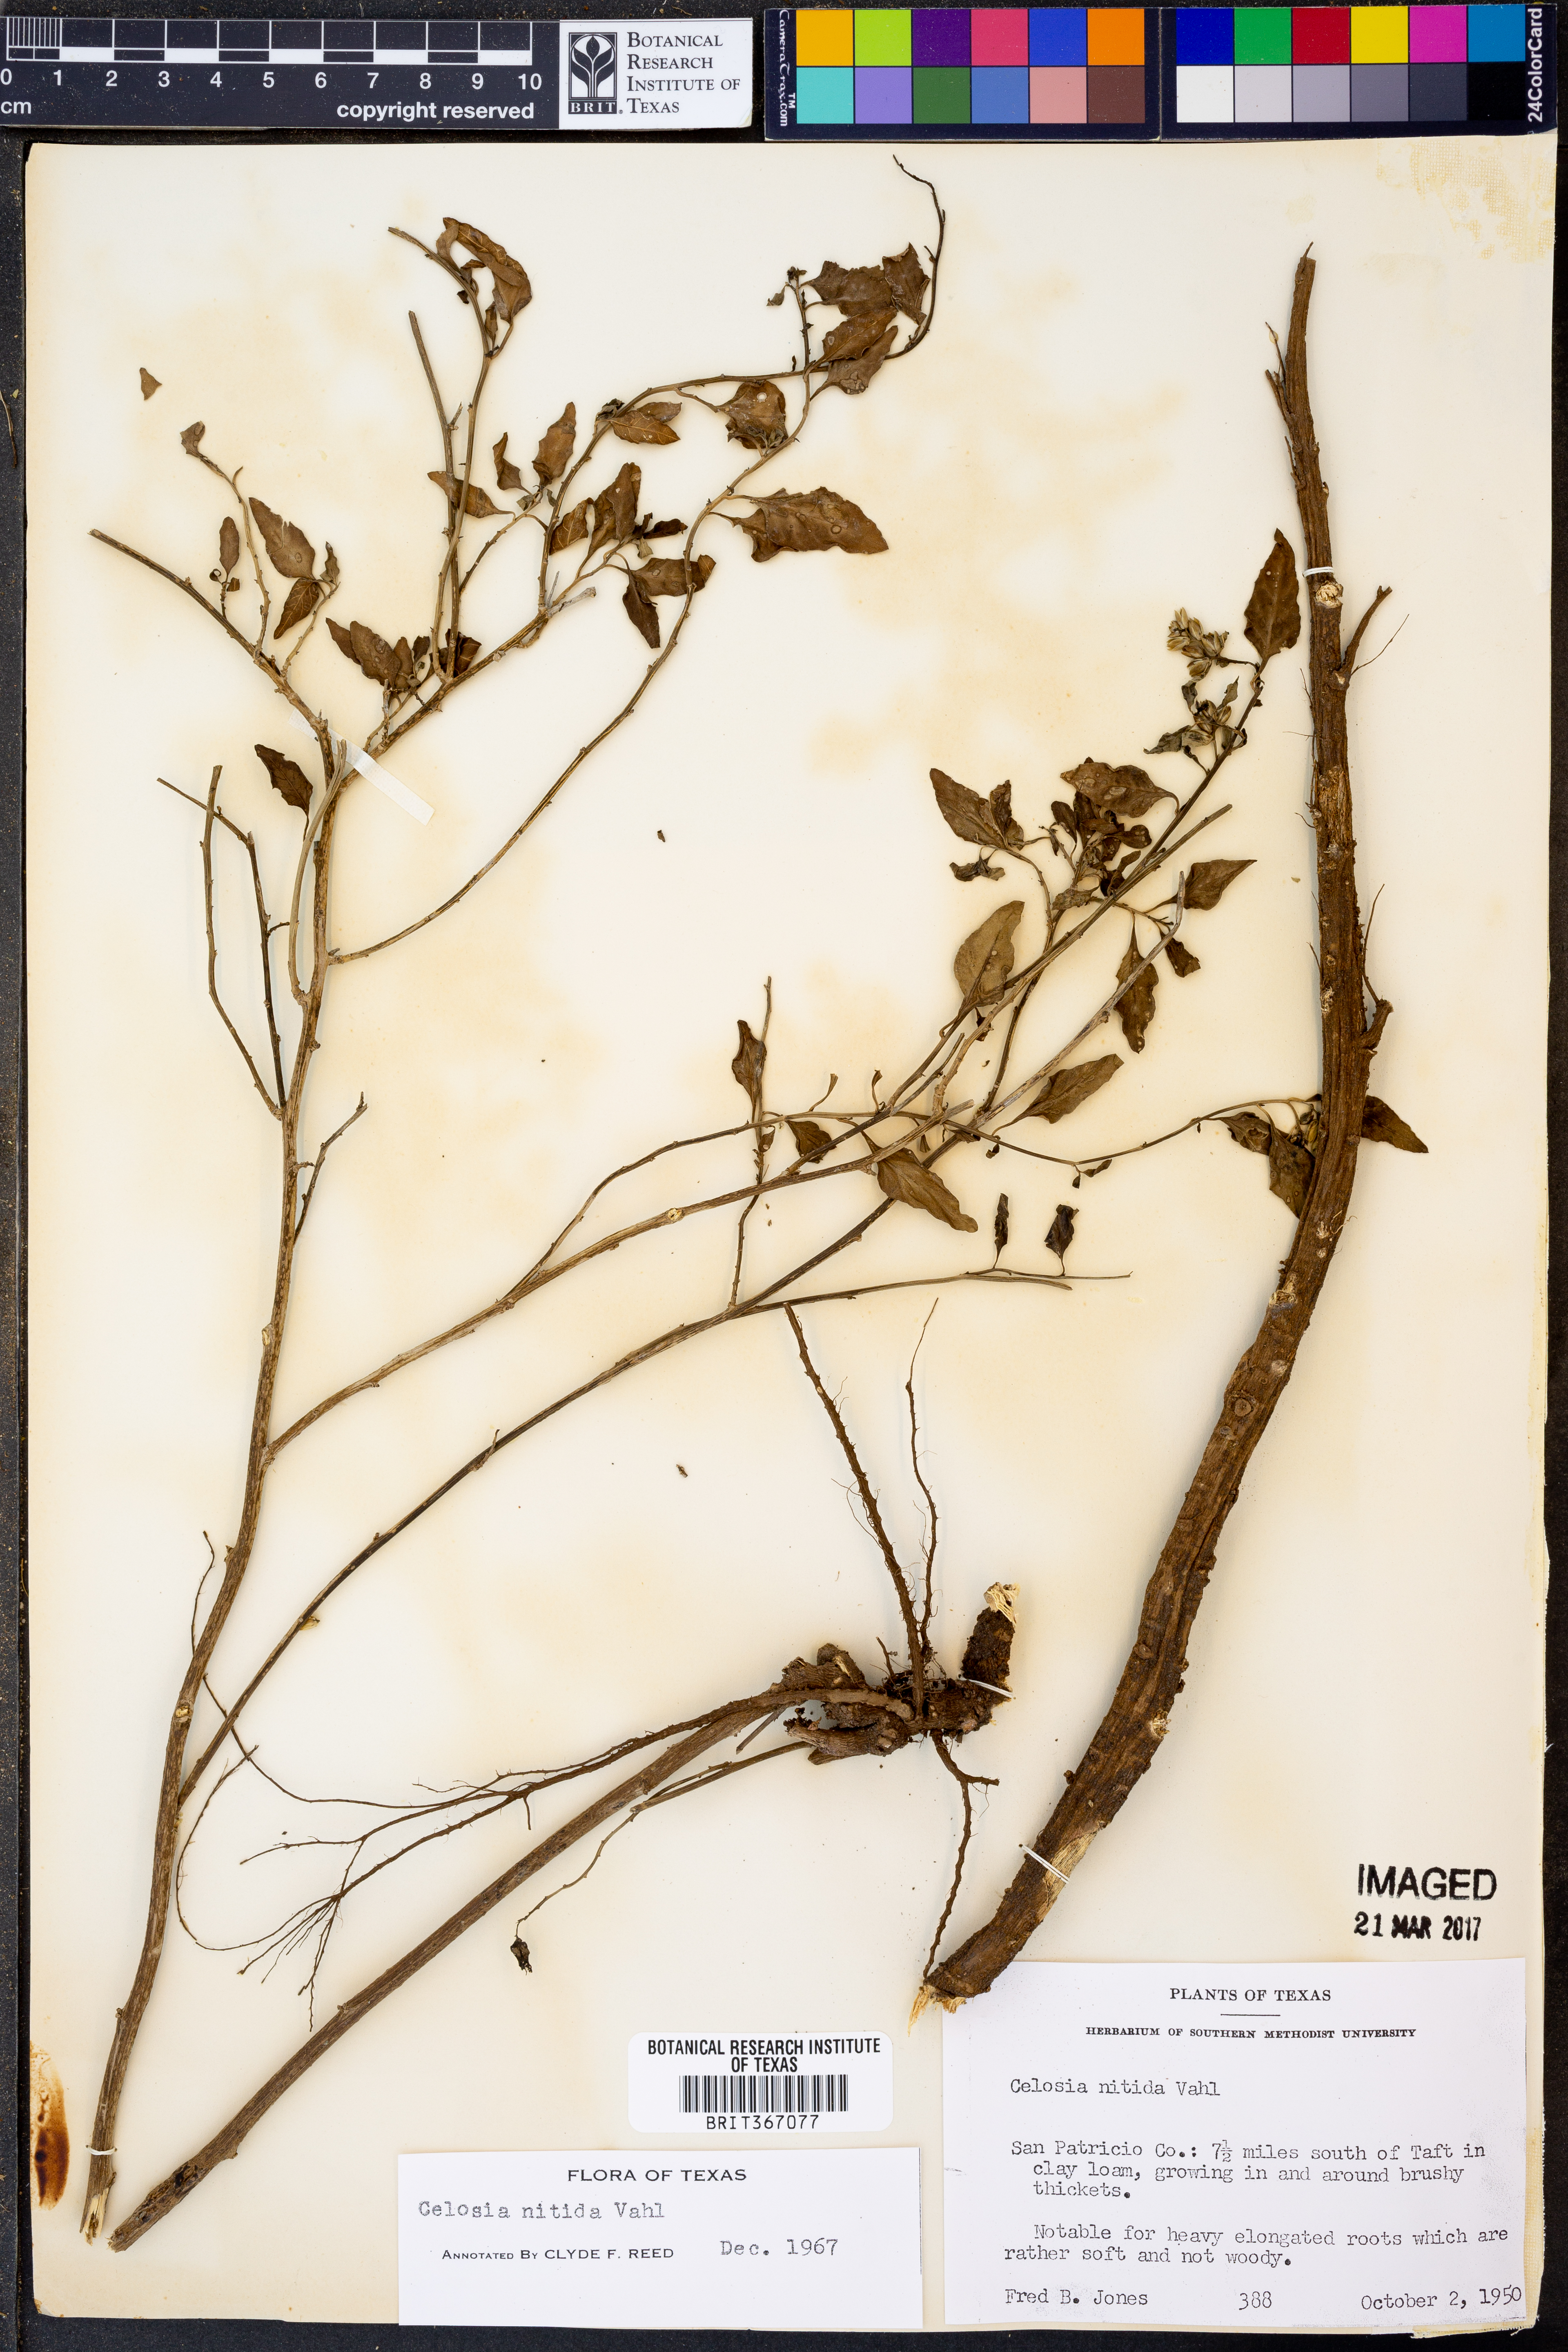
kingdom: Plantae
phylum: Tracheophyta
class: Magnoliopsida
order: Caryophyllales
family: Amaranthaceae
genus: Celosia
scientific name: Celosia nitida
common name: West indian cock's comb
